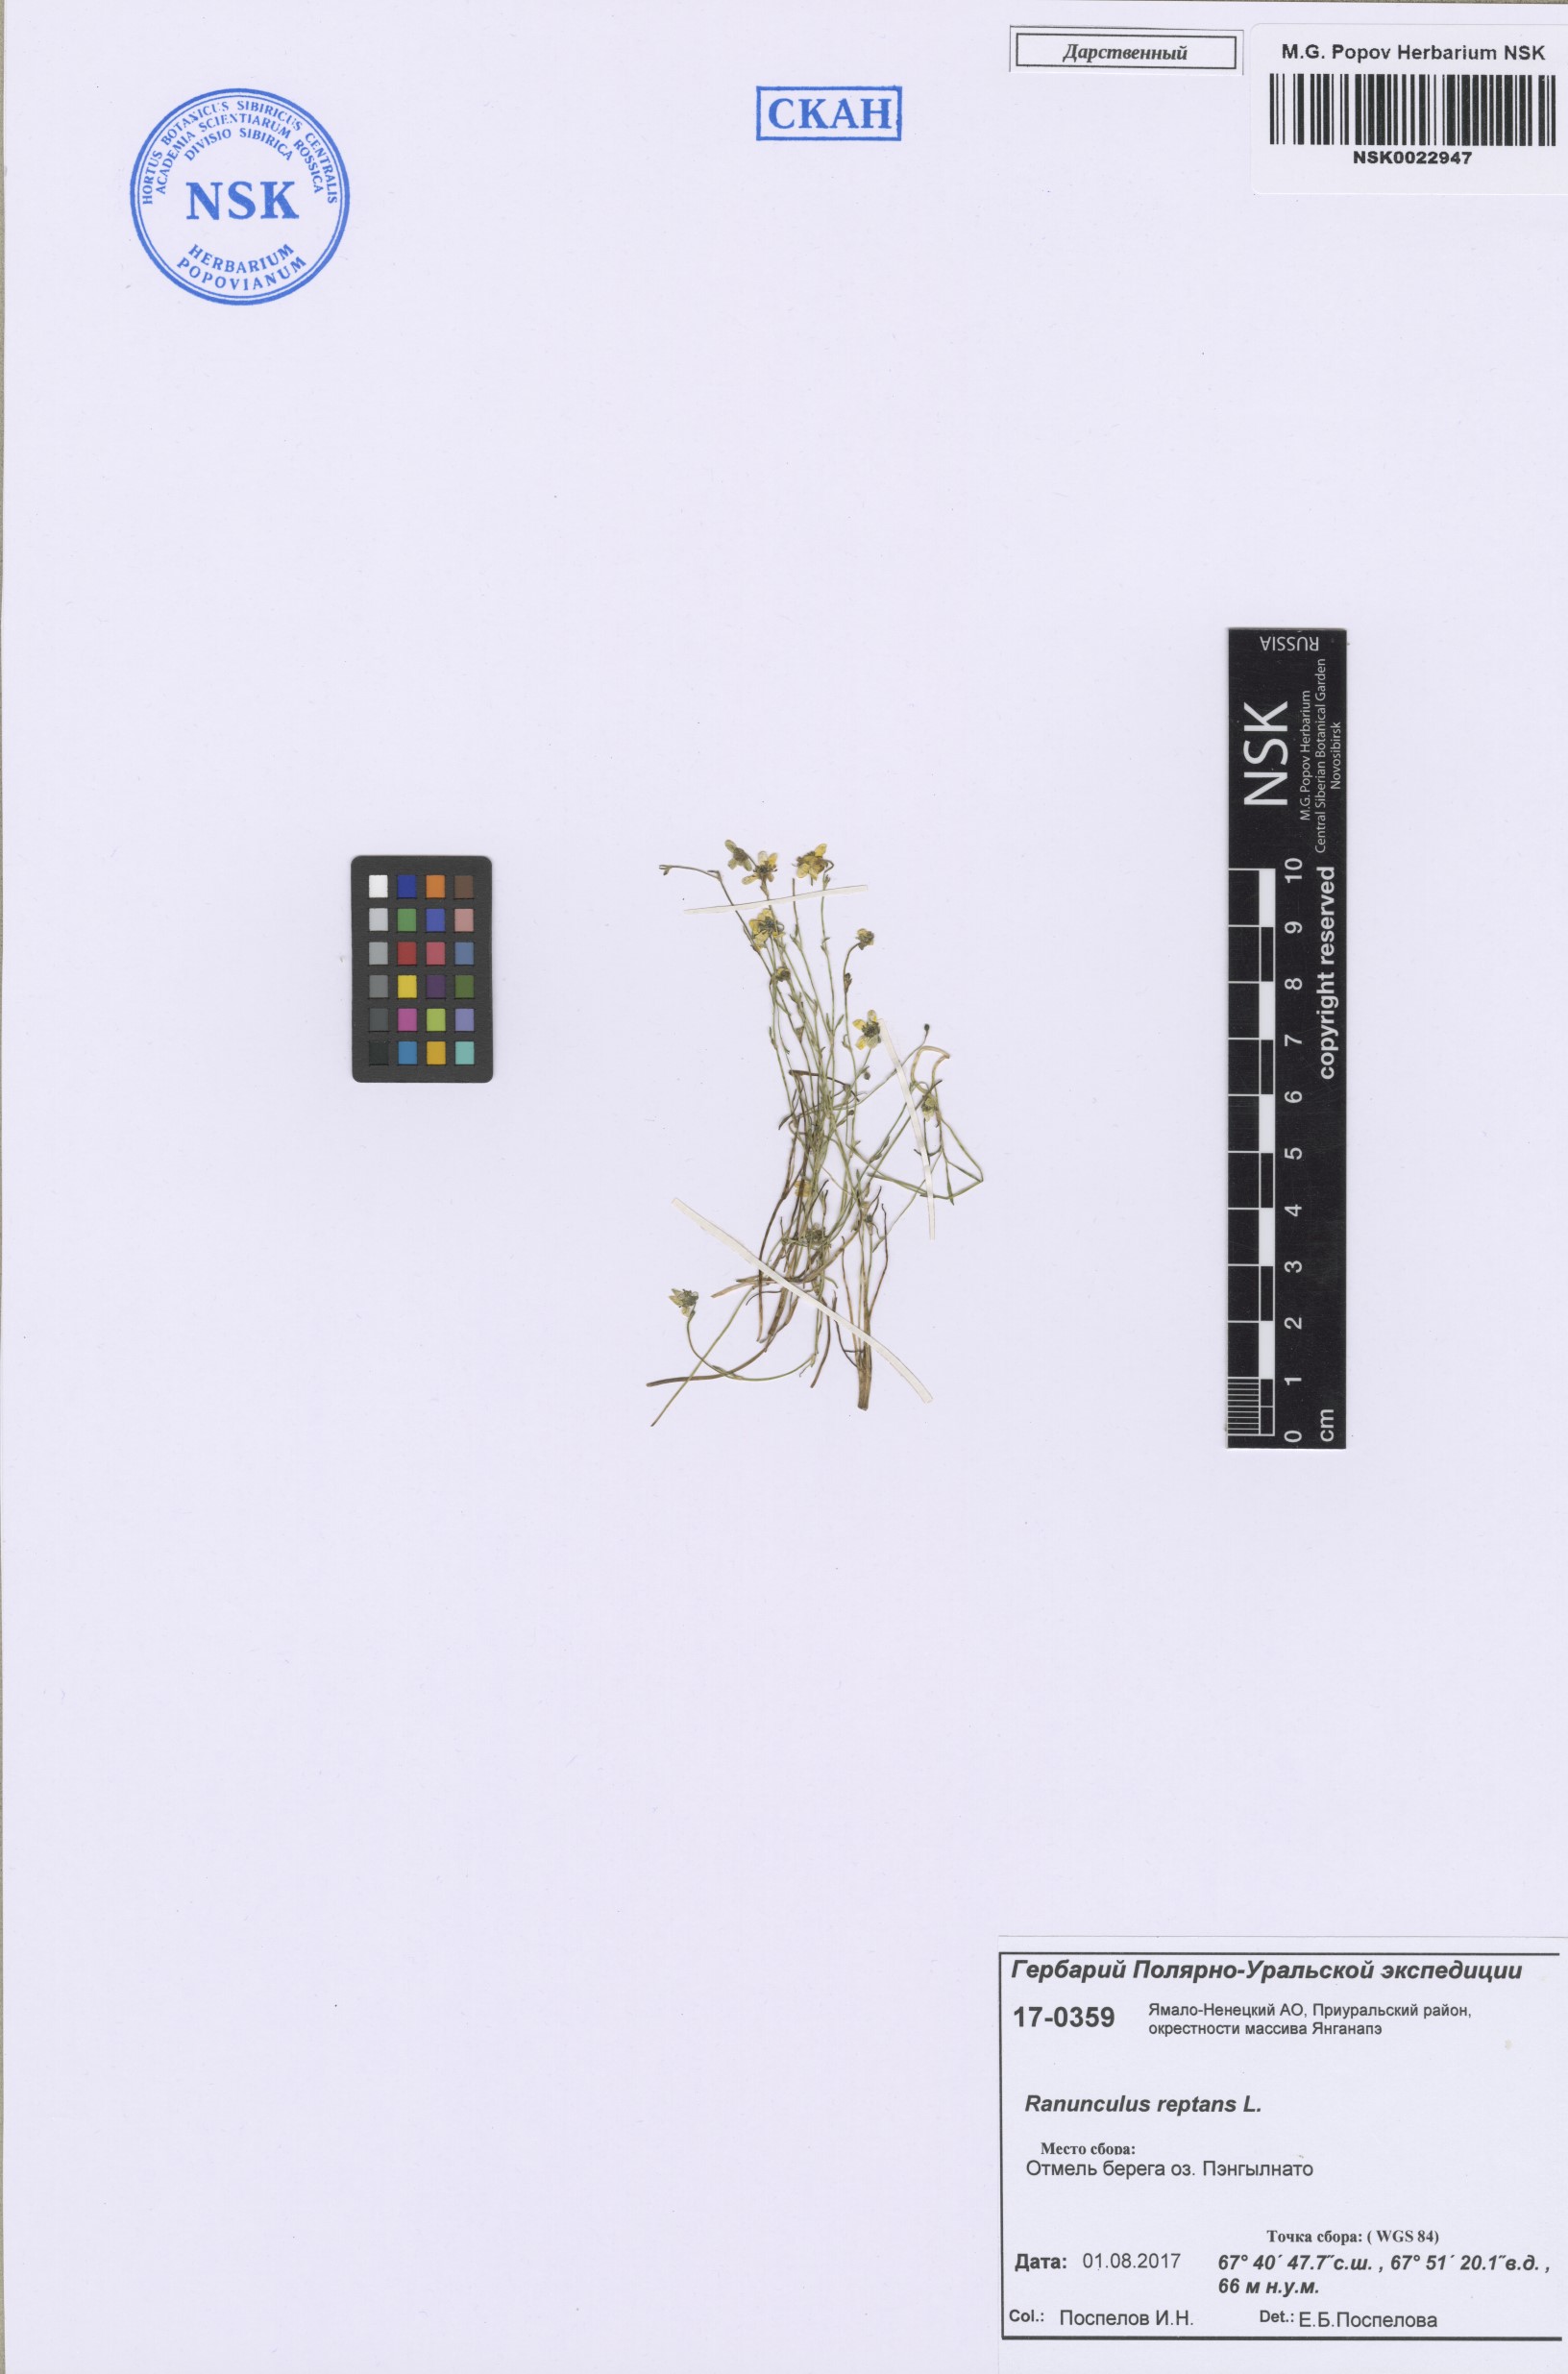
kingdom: Plantae
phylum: Tracheophyta
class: Magnoliopsida
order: Ranunculales
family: Ranunculaceae
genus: Ranunculus
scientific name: Ranunculus reptans
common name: Creeping spearwort
